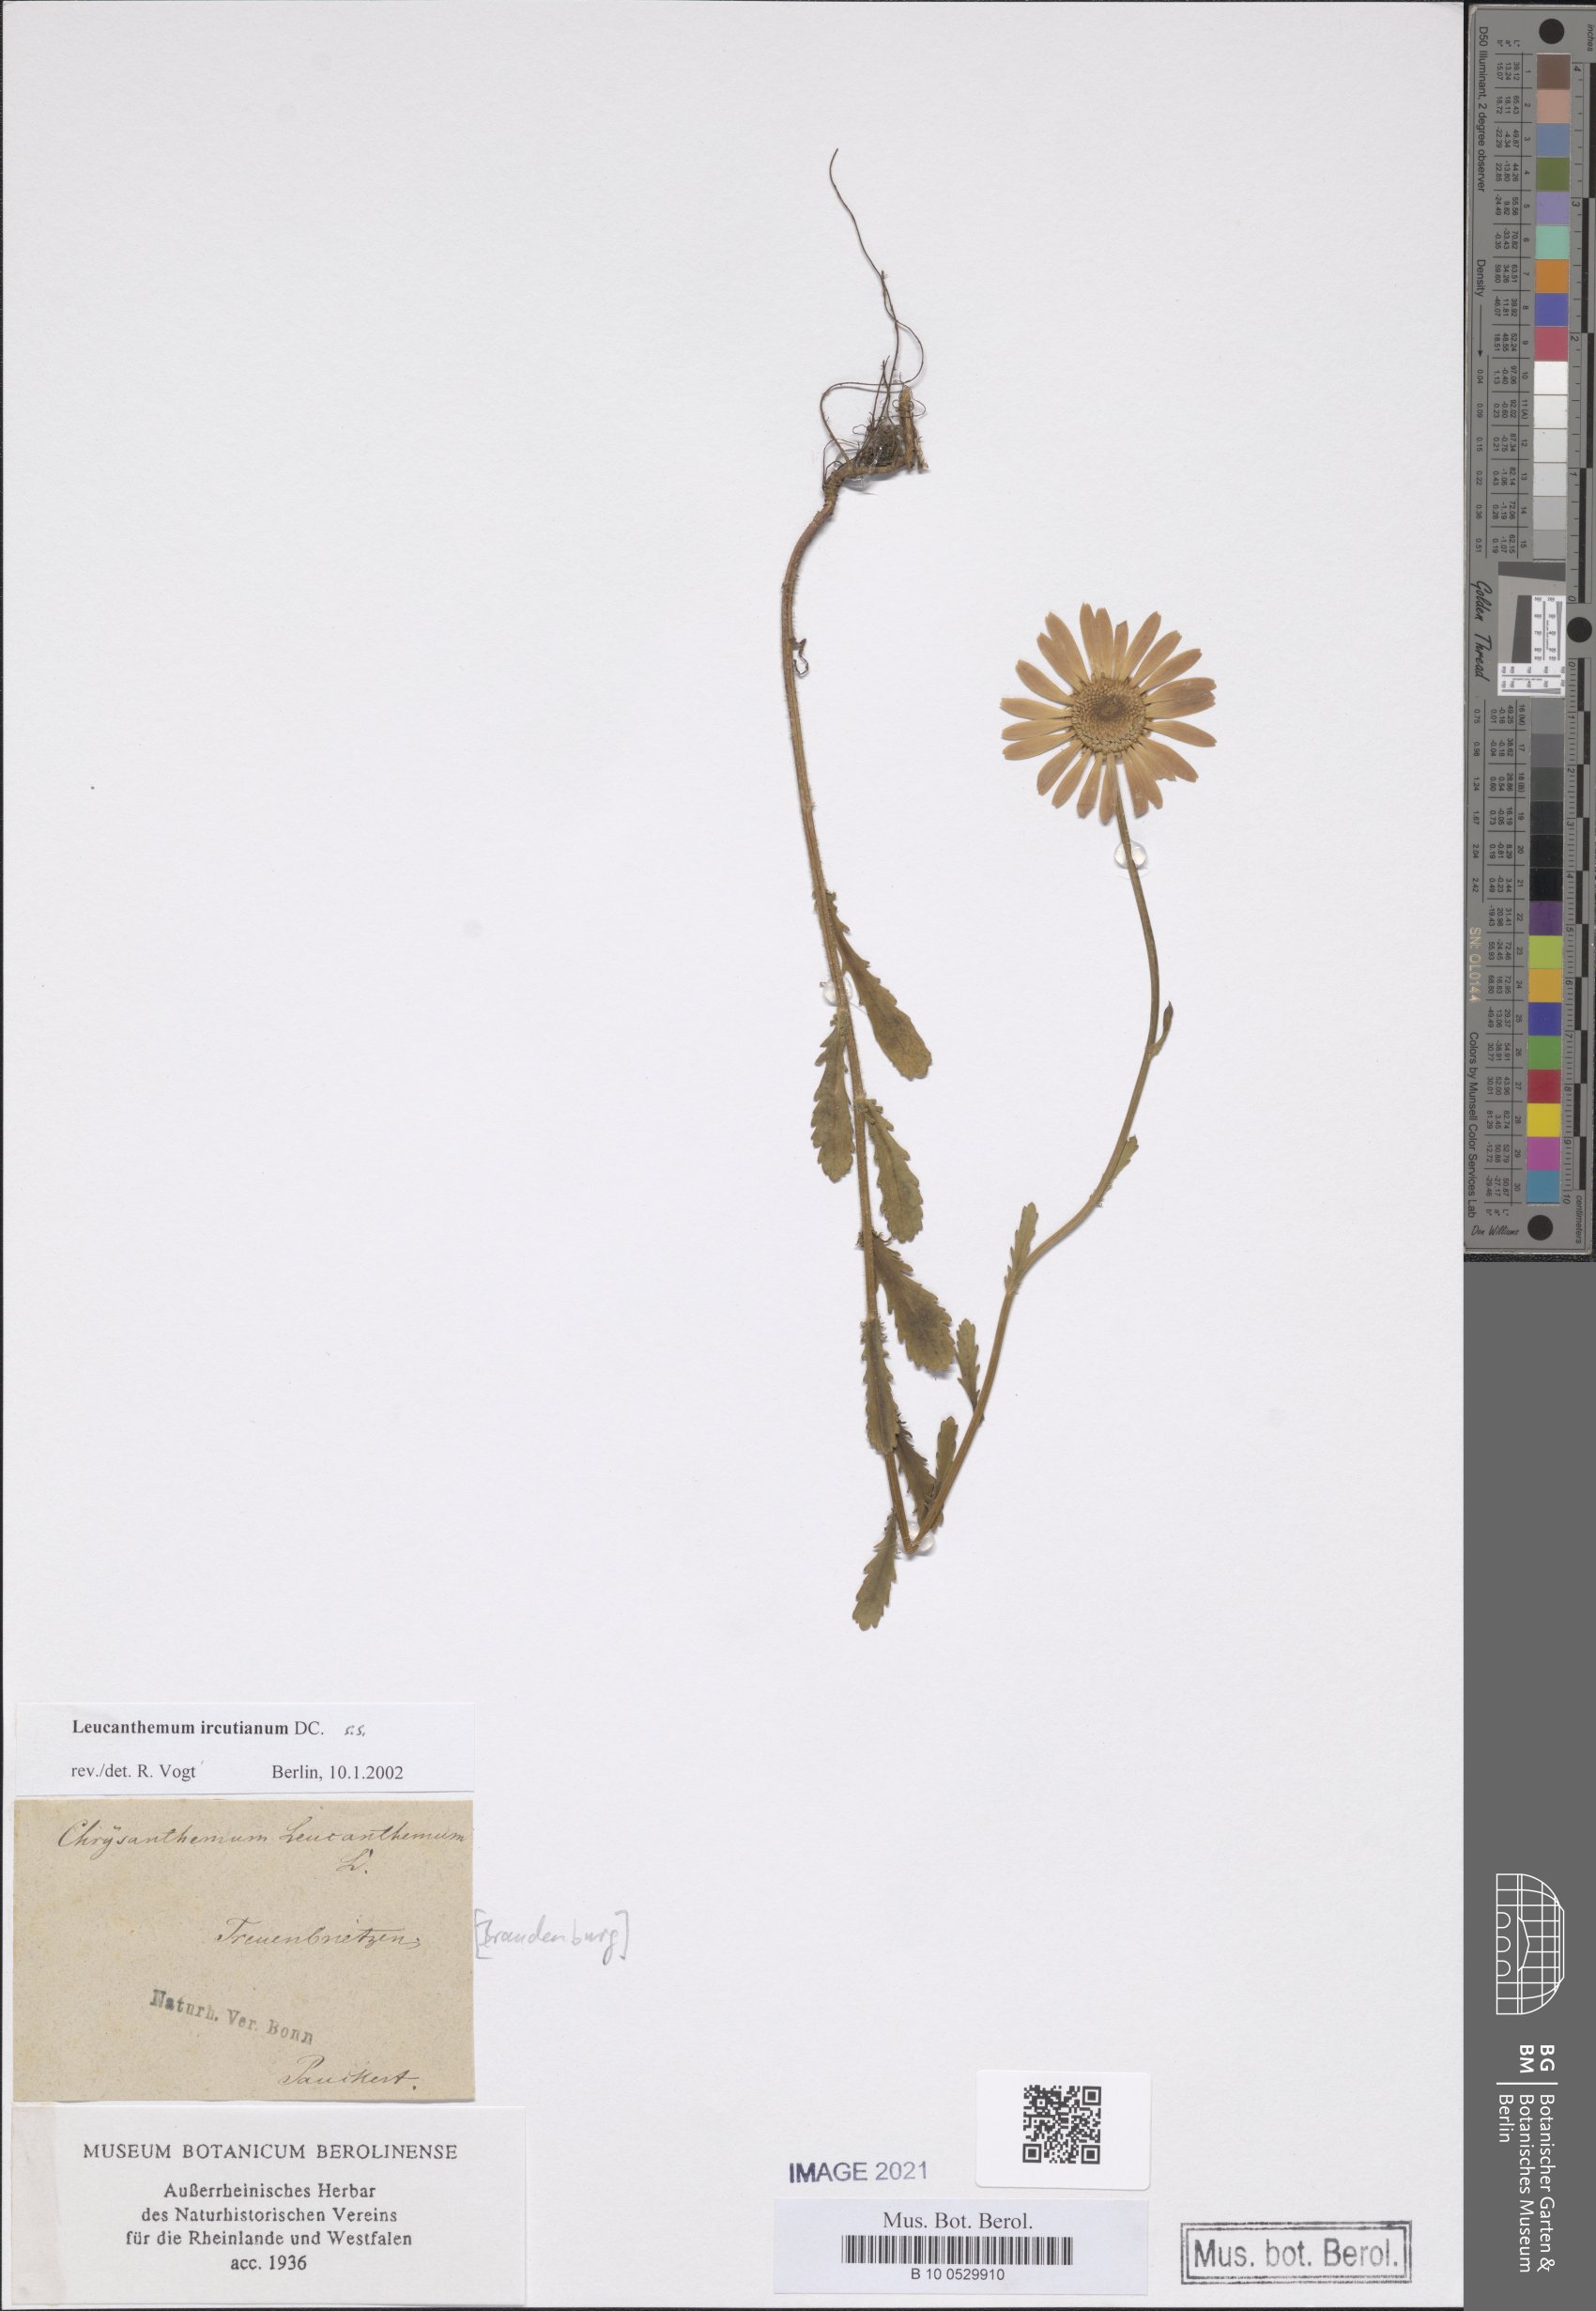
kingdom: Plantae
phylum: Tracheophyta
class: Magnoliopsida
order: Asterales
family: Asteraceae
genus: Leucanthemum
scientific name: Leucanthemum ircutianum
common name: Daisy
